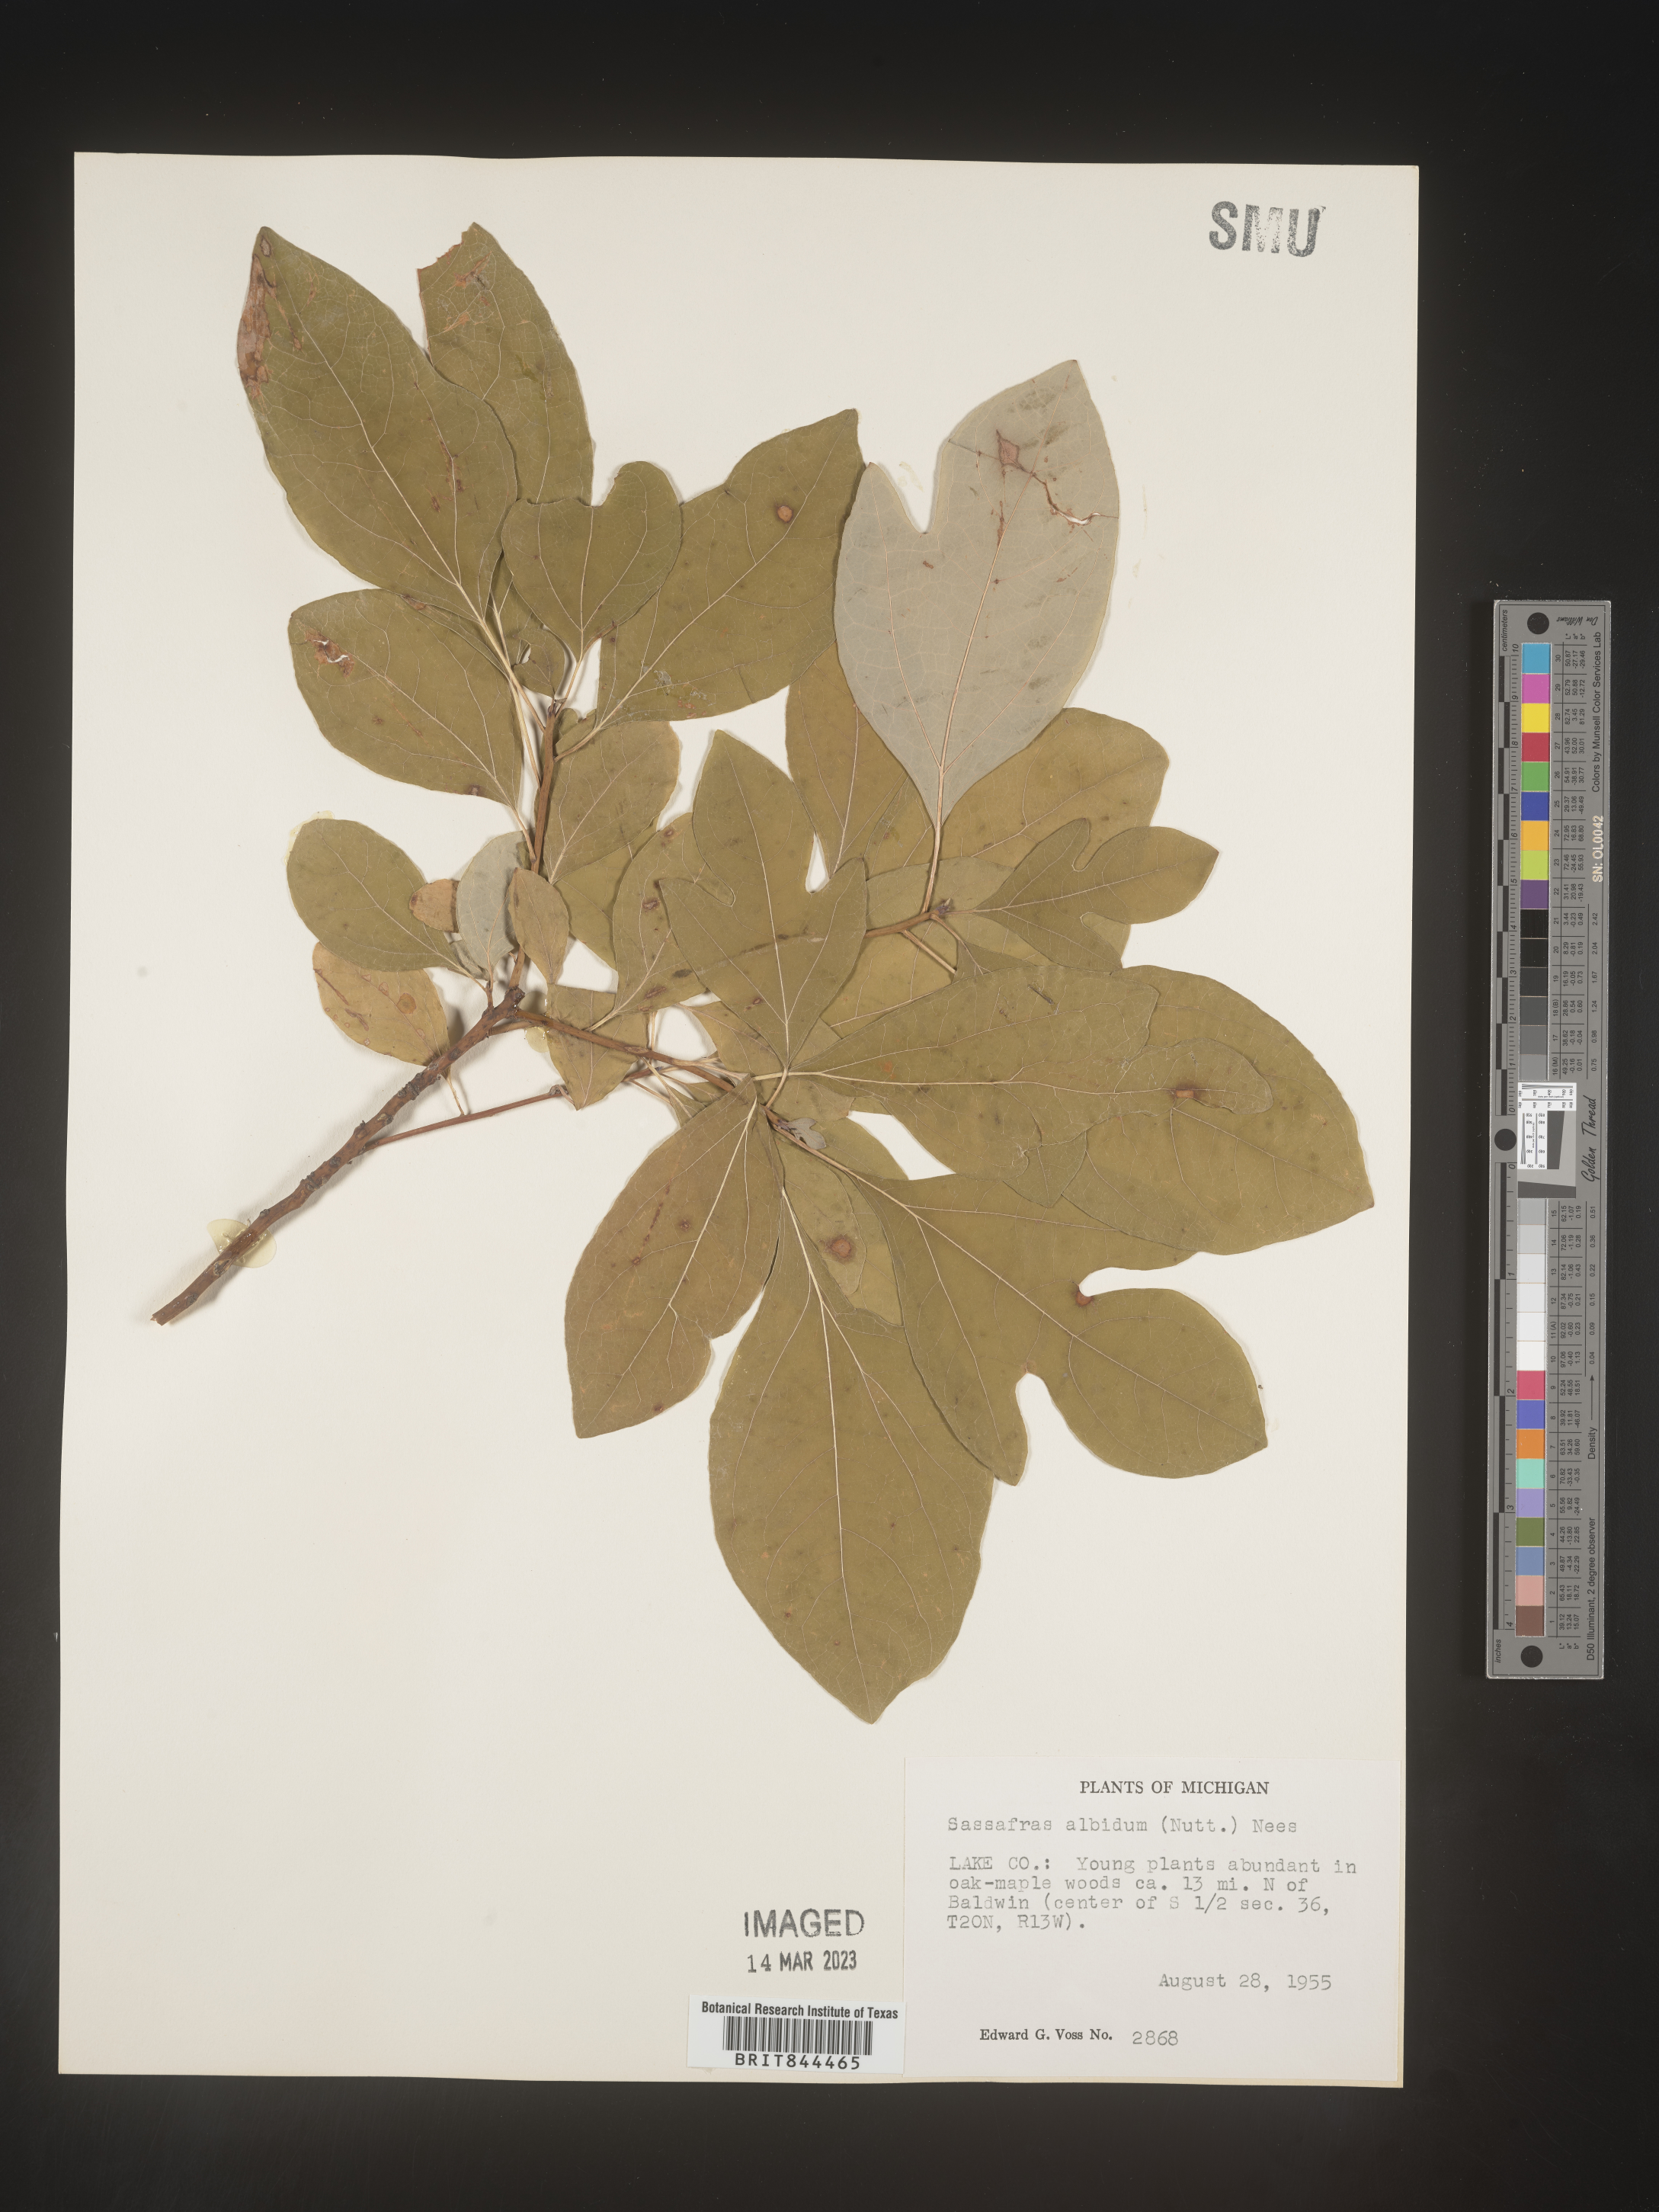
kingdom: Plantae
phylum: Tracheophyta
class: Magnoliopsida
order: Laurales
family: Lauraceae
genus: Sassafras
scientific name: Sassafras albidum
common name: Sassafras
